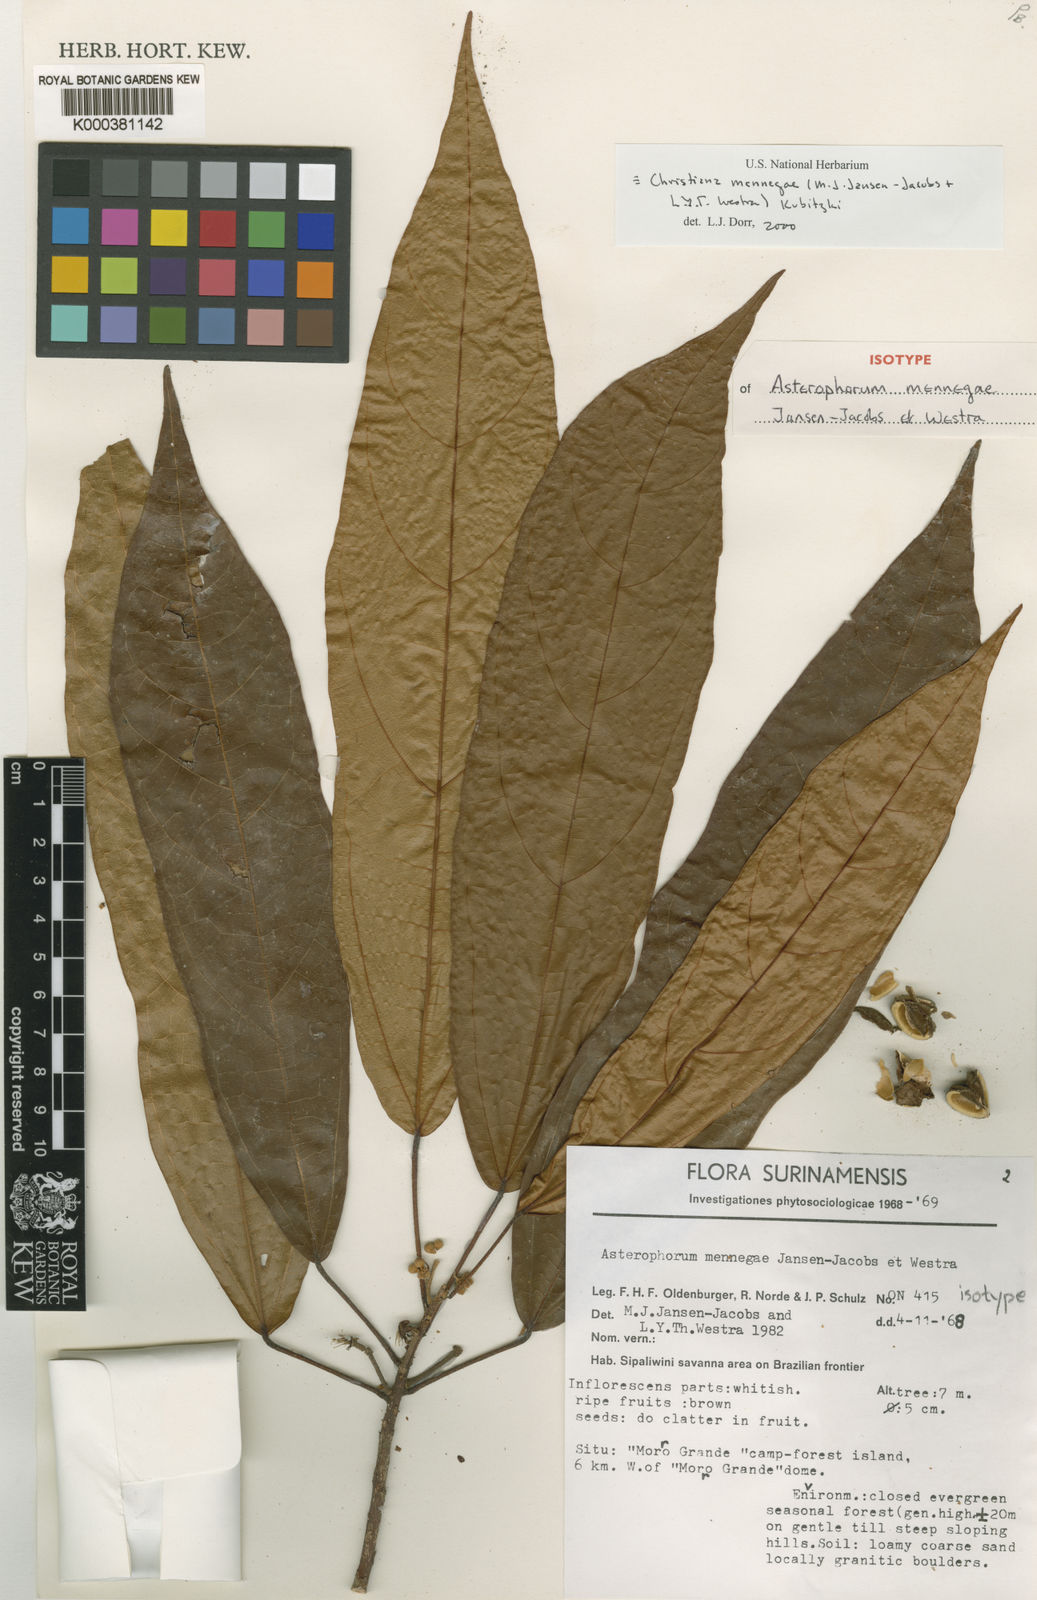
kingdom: Plantae
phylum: Tracheophyta
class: Magnoliopsida
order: Malvales
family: Malvaceae
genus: Christiana
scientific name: Christiana mennegae
